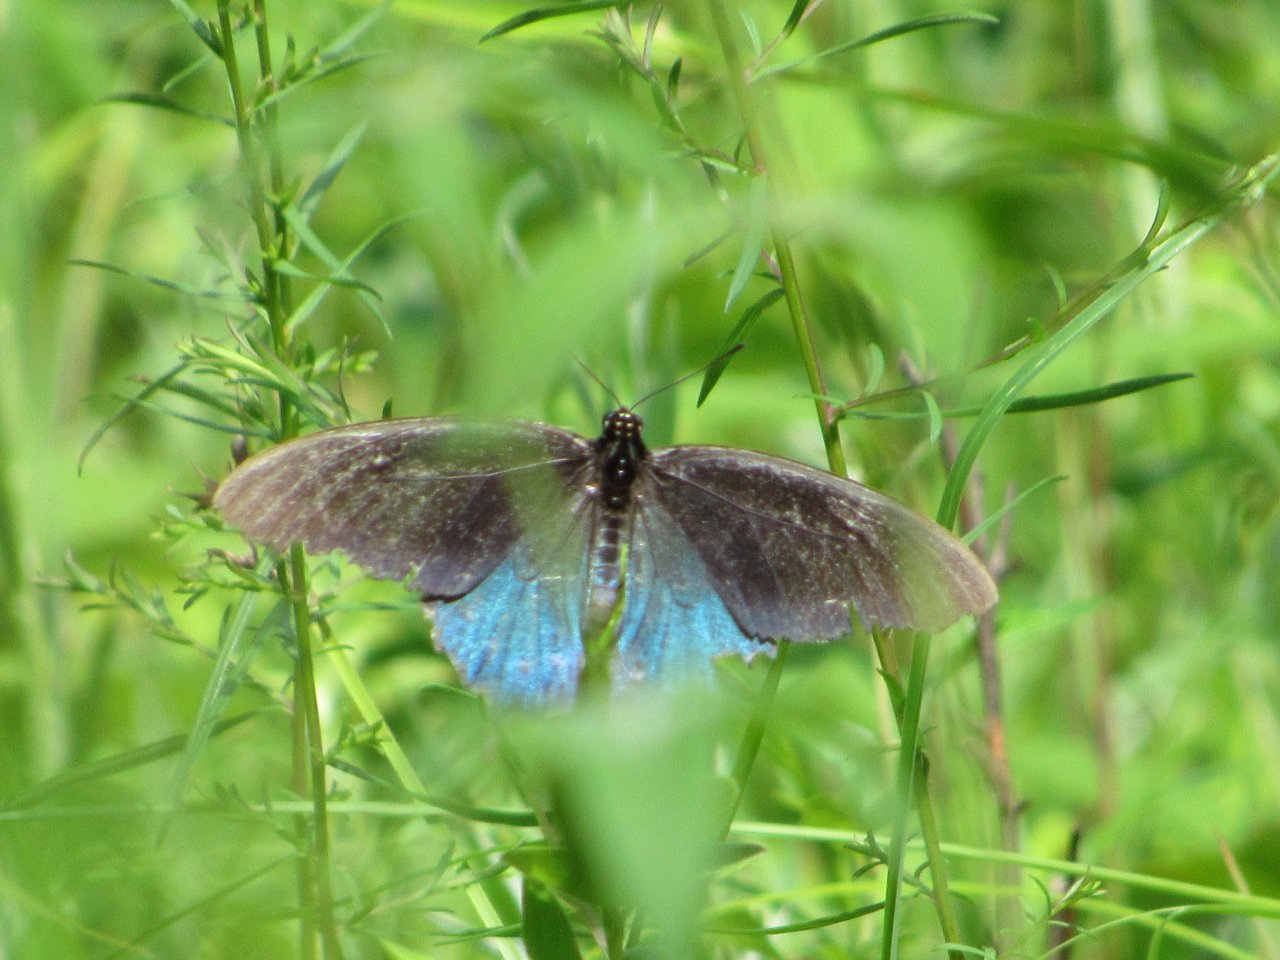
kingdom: Animalia
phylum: Arthropoda
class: Insecta
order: Lepidoptera
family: Papilionidae
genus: Battus
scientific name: Battus philenor
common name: Pipevine Swallowtail
